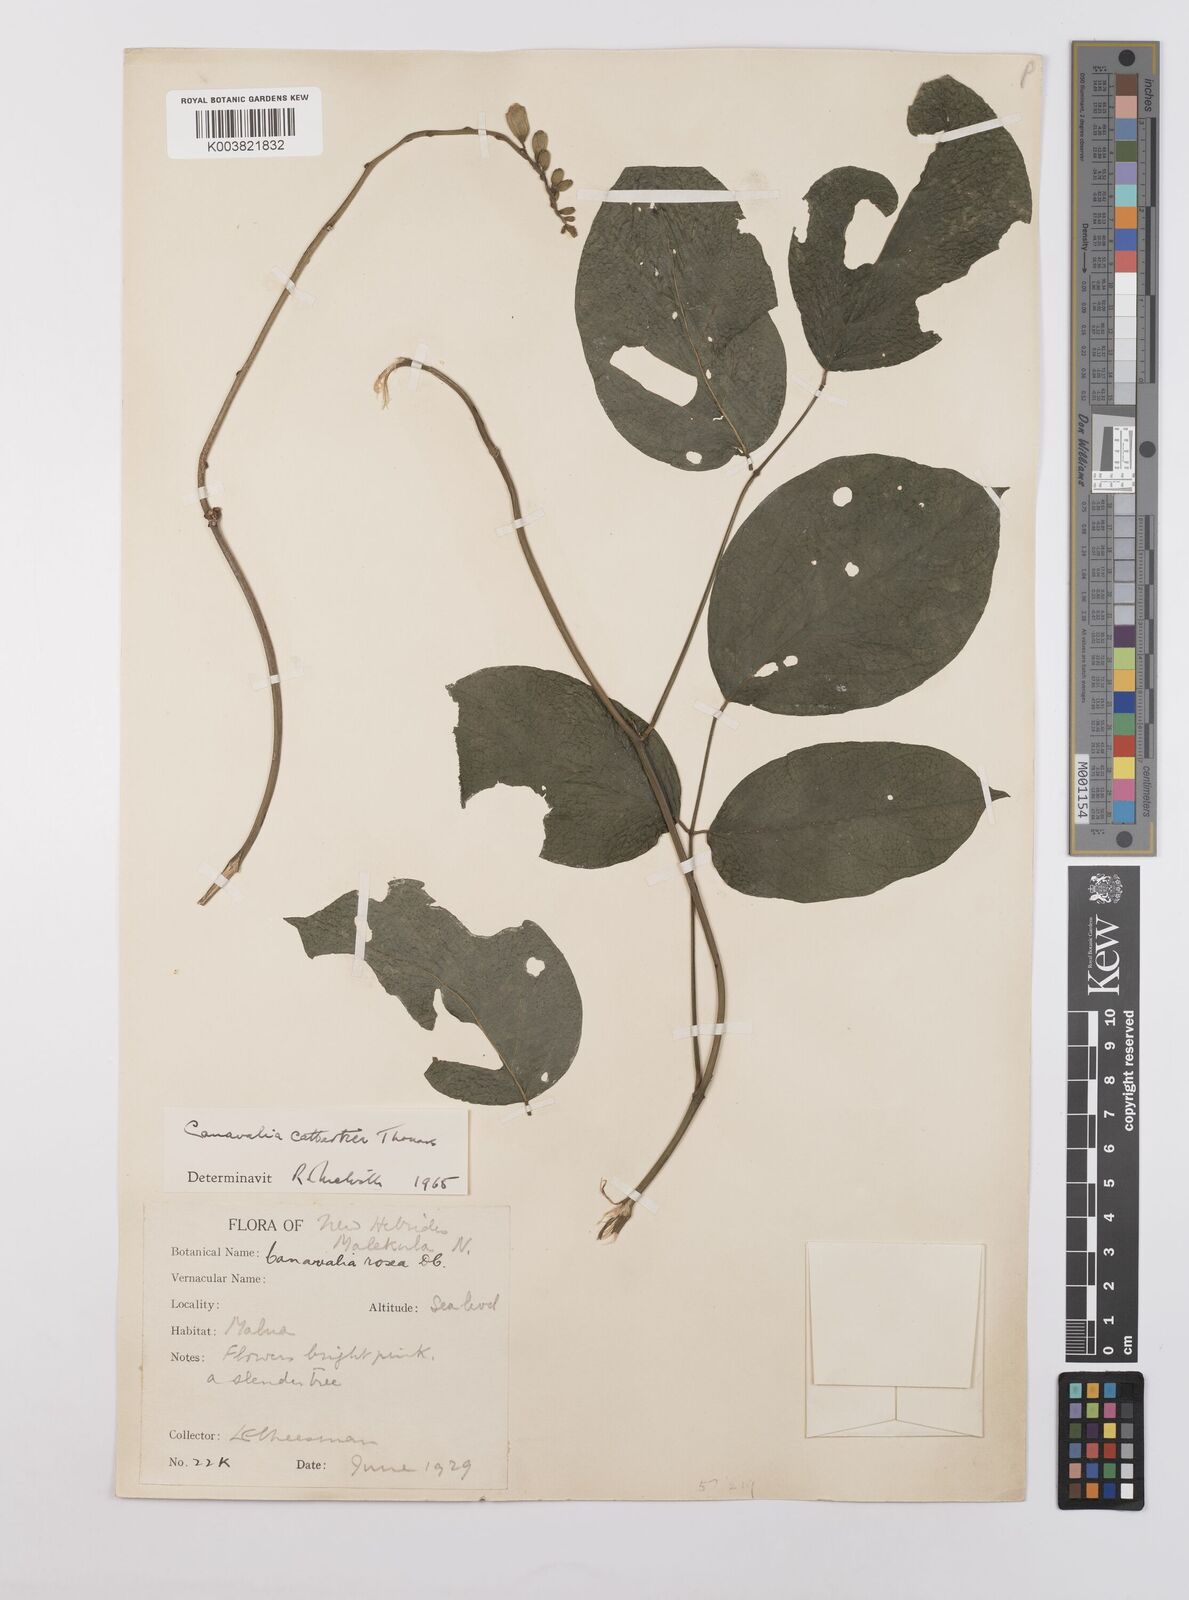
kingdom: Plantae
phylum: Tracheophyta
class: Magnoliopsida
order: Fabales
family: Fabaceae
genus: Canavalia
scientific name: Canavalia cathartica
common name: Maunaloa
